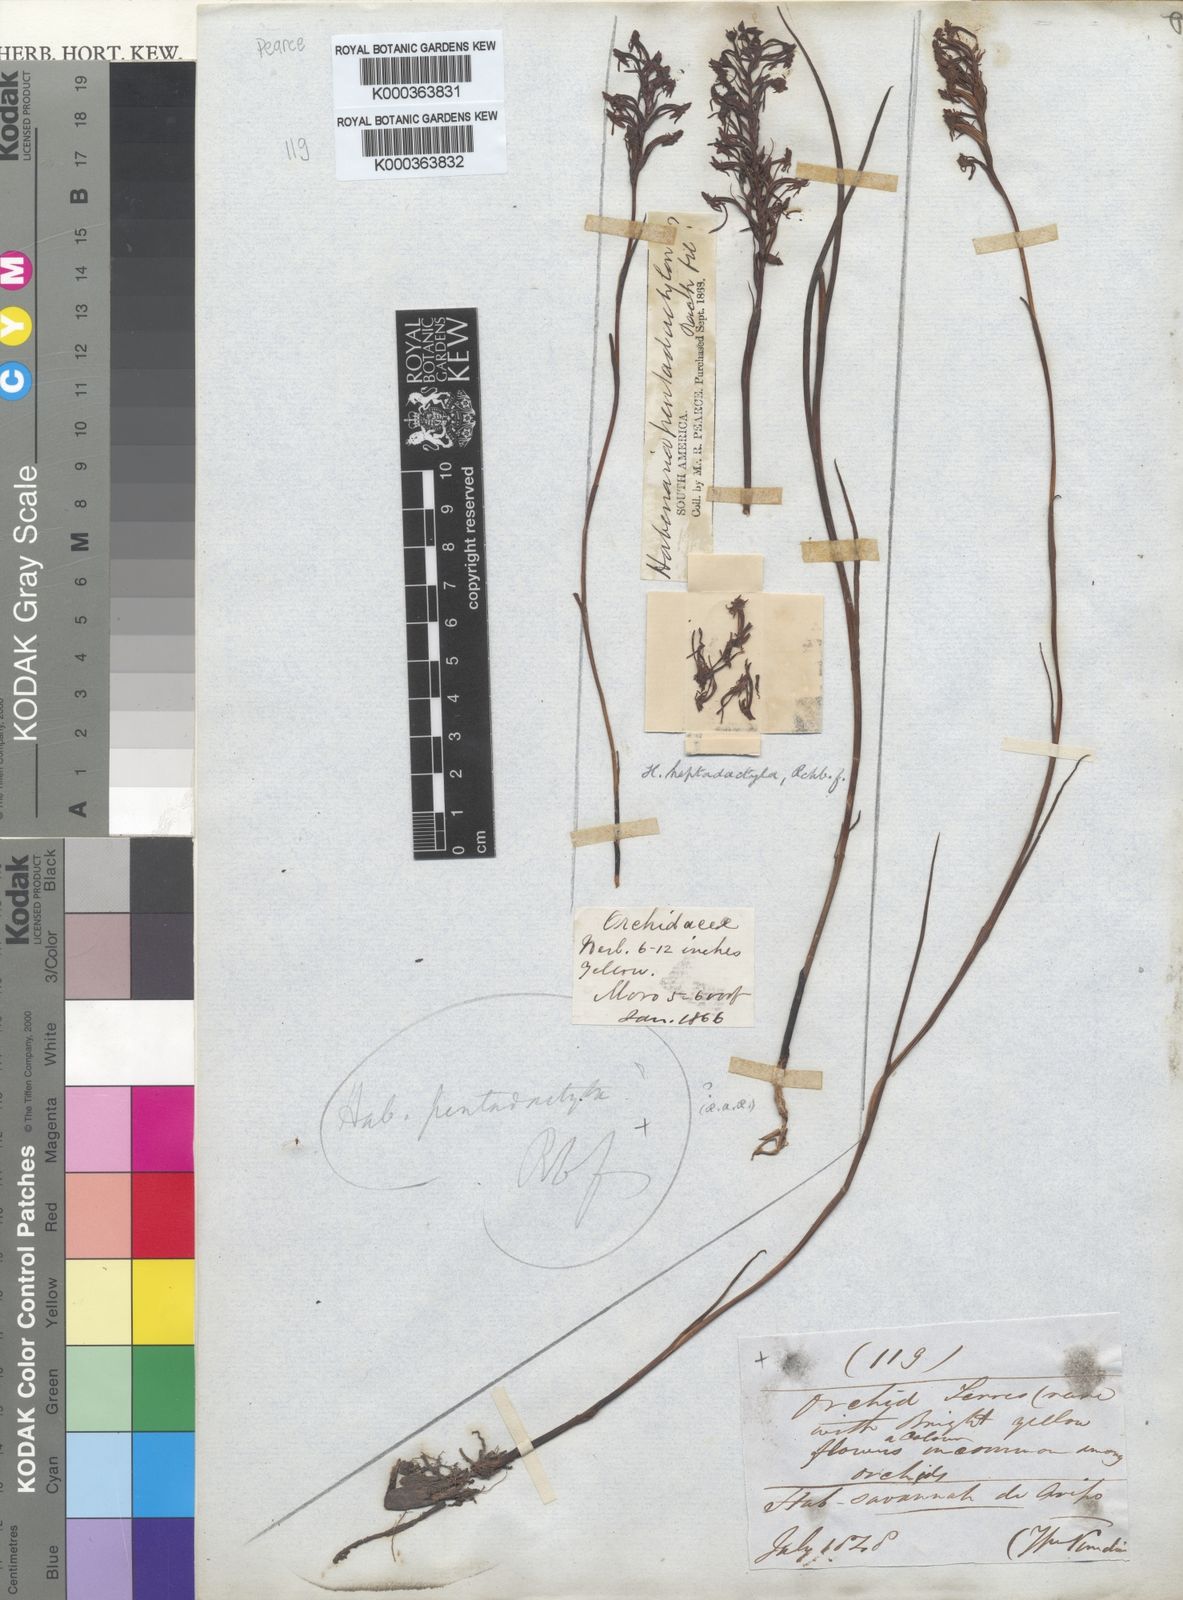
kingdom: Plantae
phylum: Tracheophyta
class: Liliopsida
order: Asparagales
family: Orchidaceae
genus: Habenaria
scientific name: Habenaria heptadactyla
